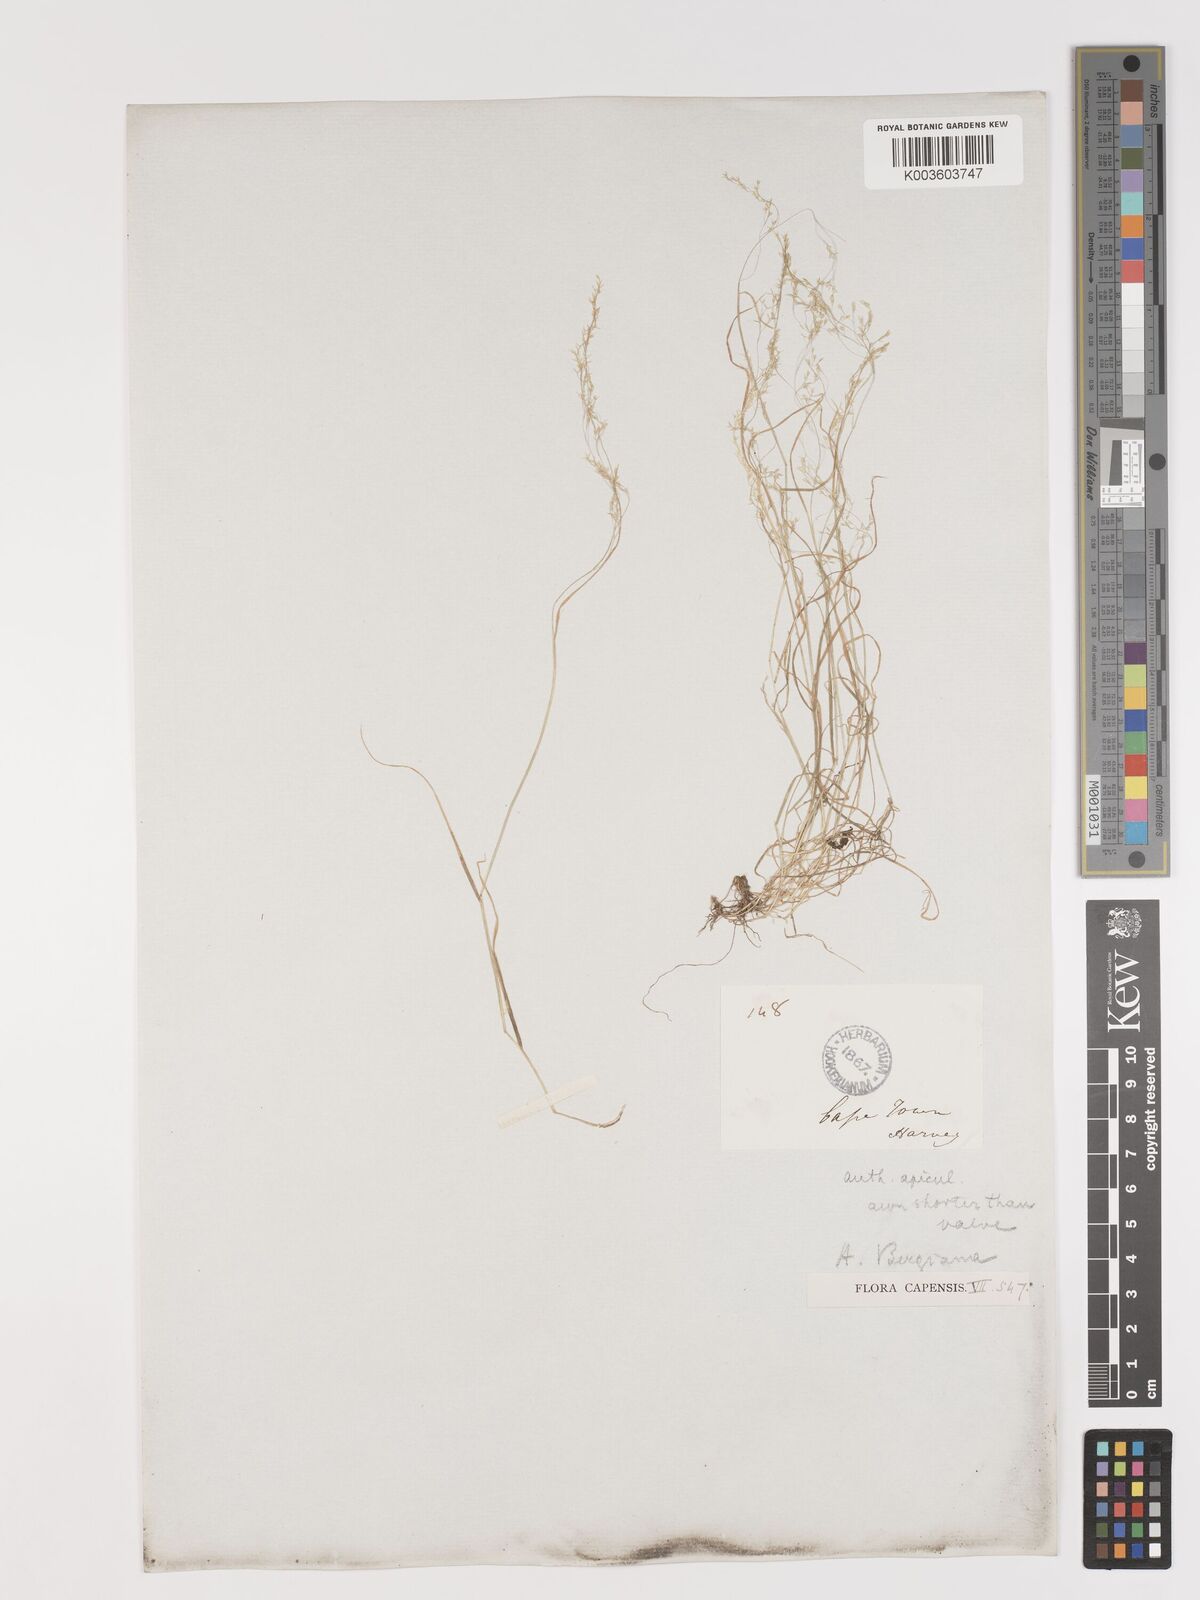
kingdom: Plantae
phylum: Tracheophyta
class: Liliopsida
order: Poales
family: Poaceae
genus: Agrostis
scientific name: Agrostis bergiana
